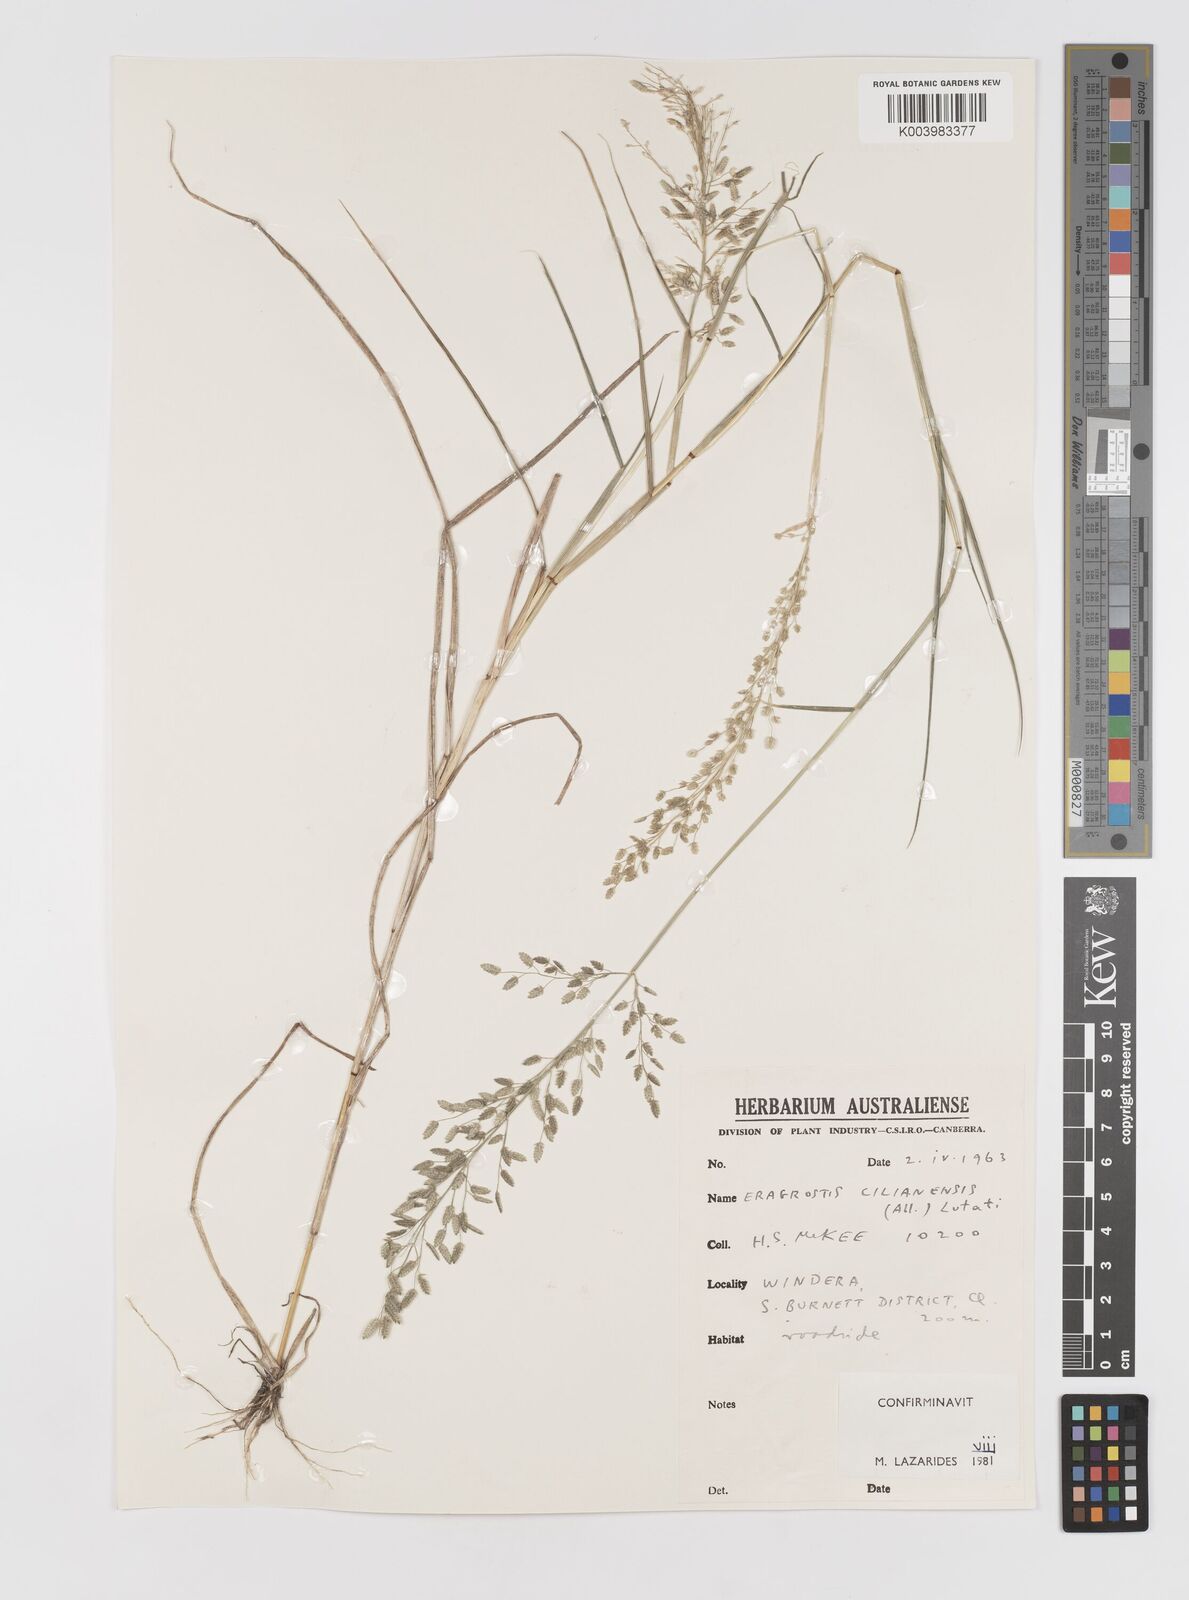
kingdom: Plantae
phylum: Tracheophyta
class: Liliopsida
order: Poales
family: Poaceae
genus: Eragrostis
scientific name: Eragrostis cilianensis
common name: Stinkgrass
